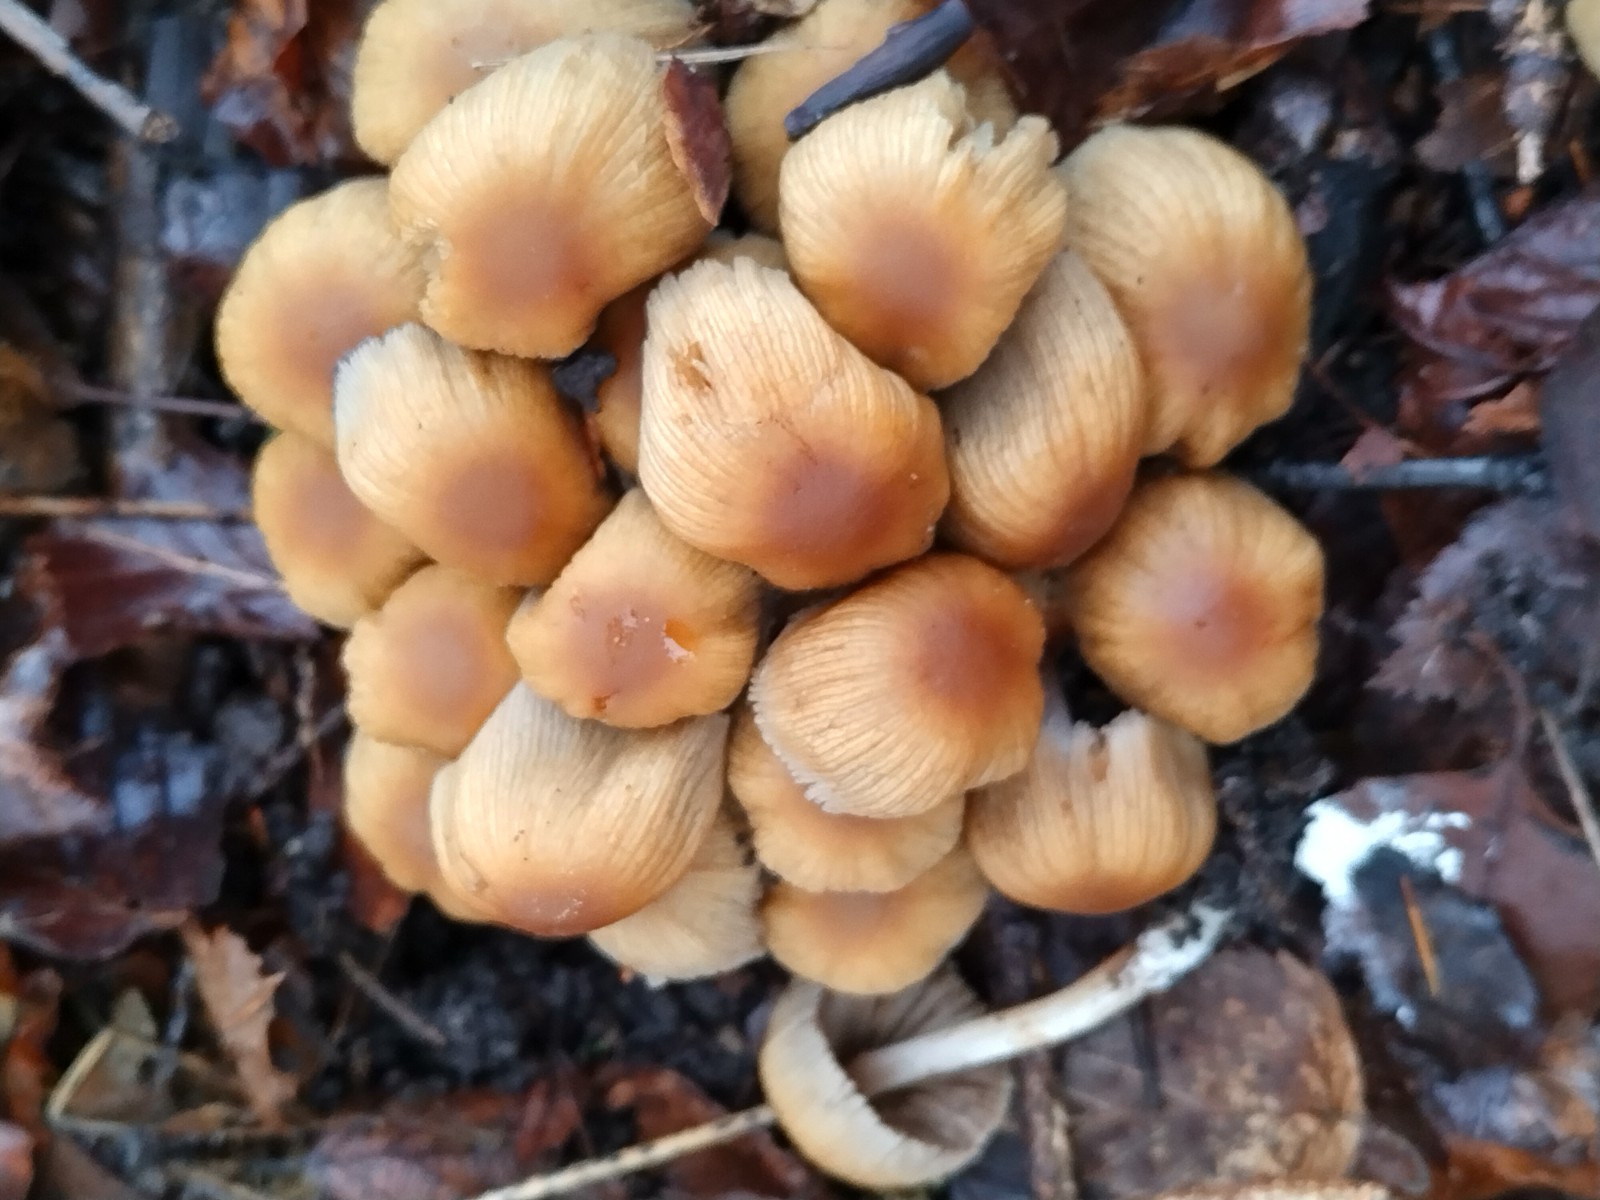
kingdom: Fungi
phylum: Basidiomycota
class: Agaricomycetes
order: Agaricales
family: Psathyrellaceae
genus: Coprinellus
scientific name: Coprinellus micaceus
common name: glimmer-blækhat
